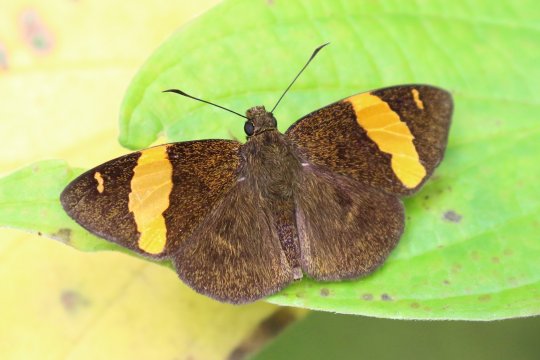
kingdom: Animalia
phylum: Arthropoda
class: Insecta
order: Lepidoptera
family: Hesperiidae
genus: Celaenorrhinus
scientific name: Celaenorrhinus aurivittata
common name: Dark Yellow-banded Flat
